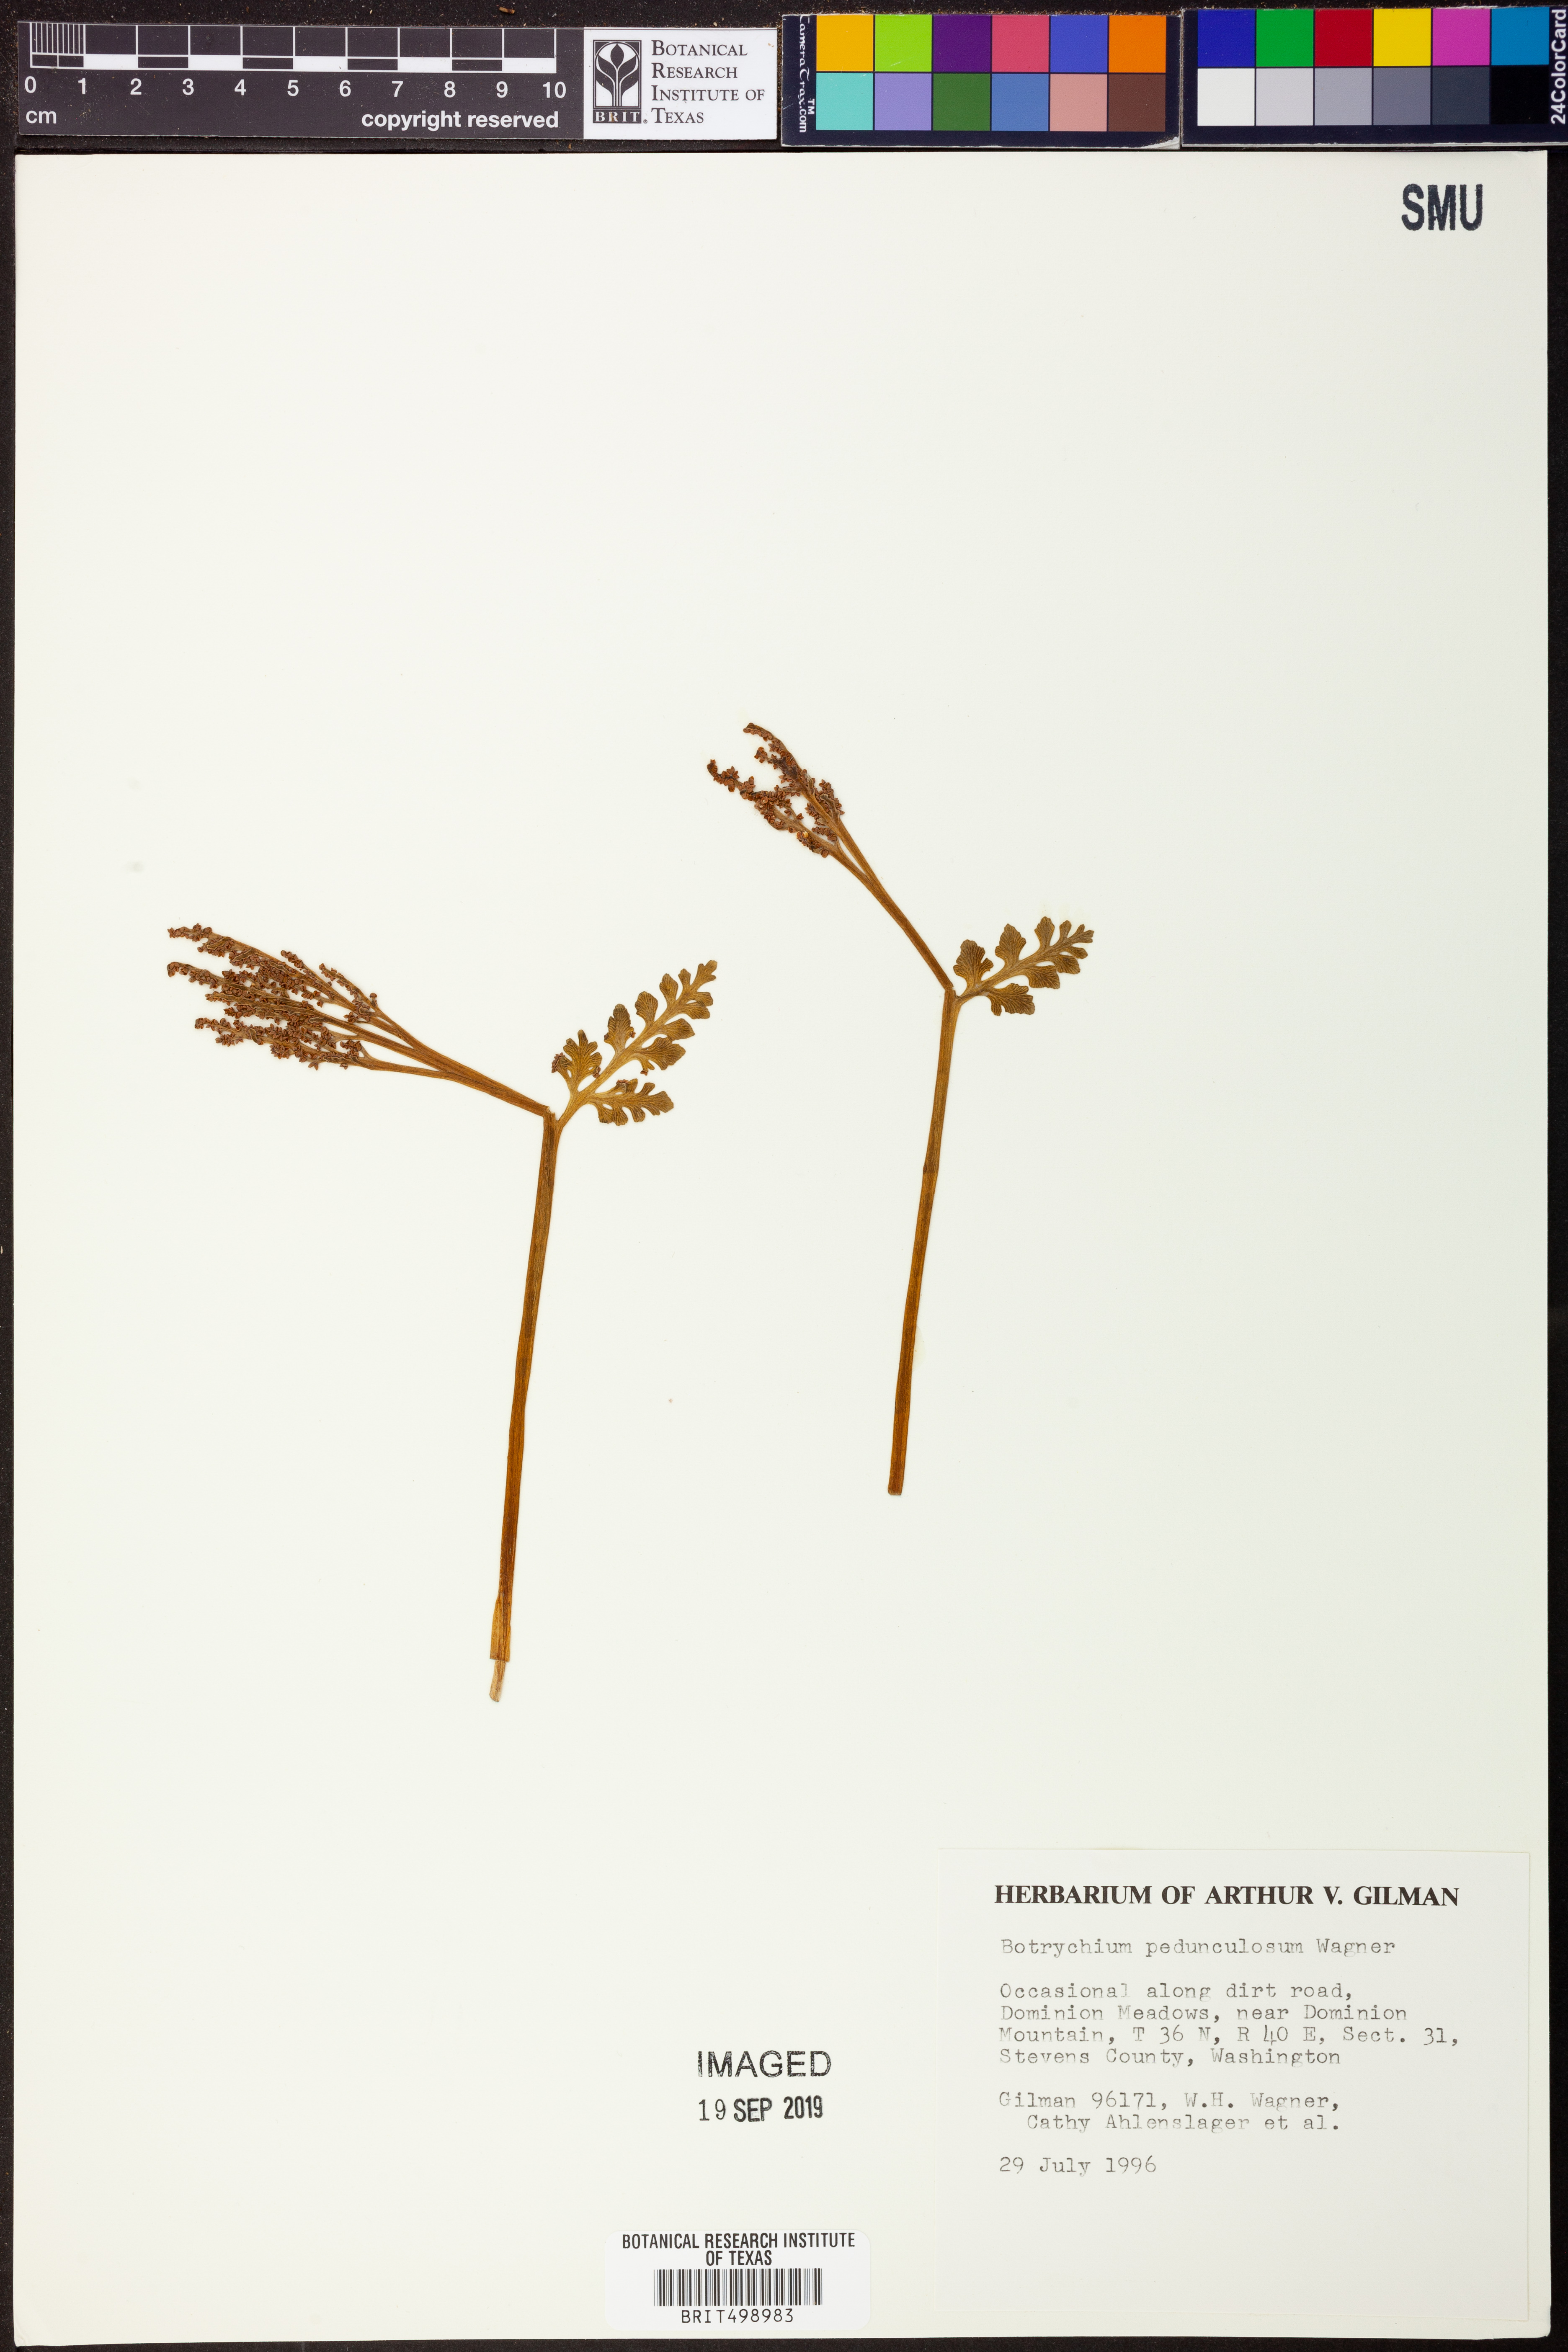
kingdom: Plantae
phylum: Tracheophyta
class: Polypodiopsida
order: Ophioglossales
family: Ophioglossaceae
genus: Botrychium
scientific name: Botrychium pedunculosum
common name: Stalked moonwort
